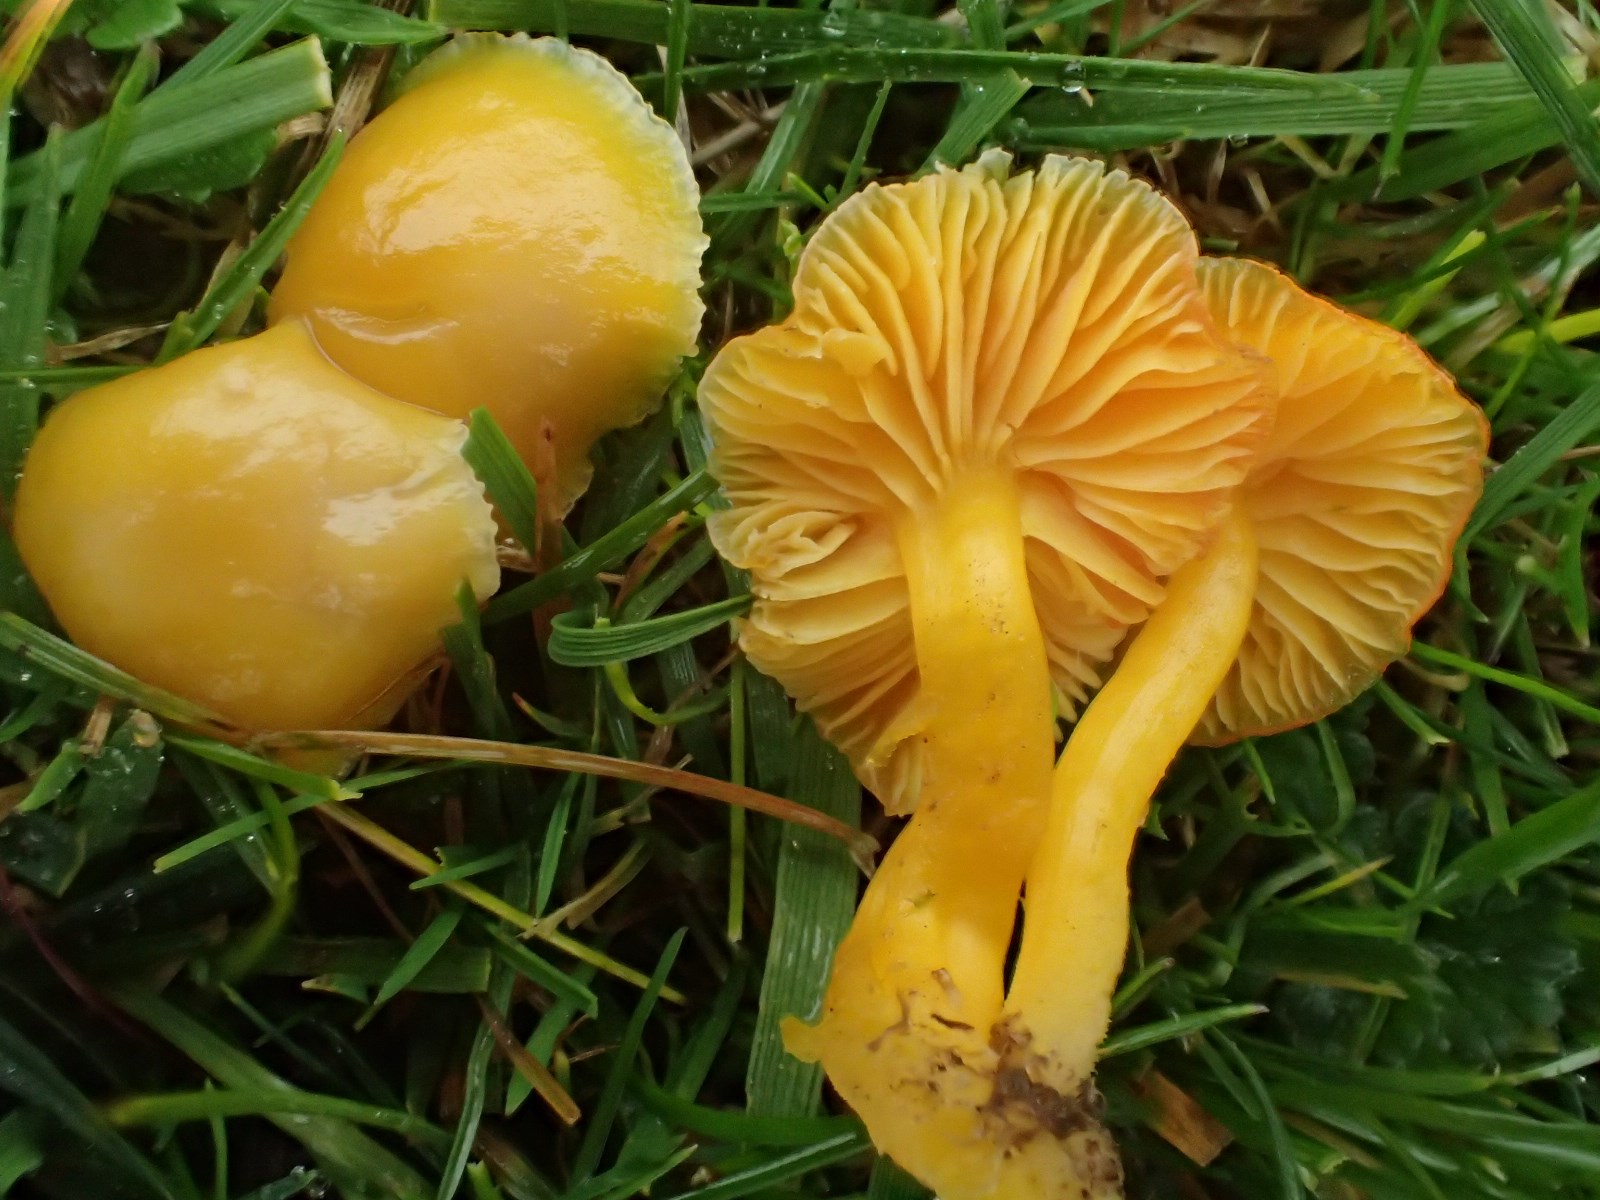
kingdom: Fungi
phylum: Basidiomycota
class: Agaricomycetes
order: Agaricales
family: Hygrophoraceae
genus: Hygrocybe
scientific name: Hygrocybe ceracea
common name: voksgul vokshat
